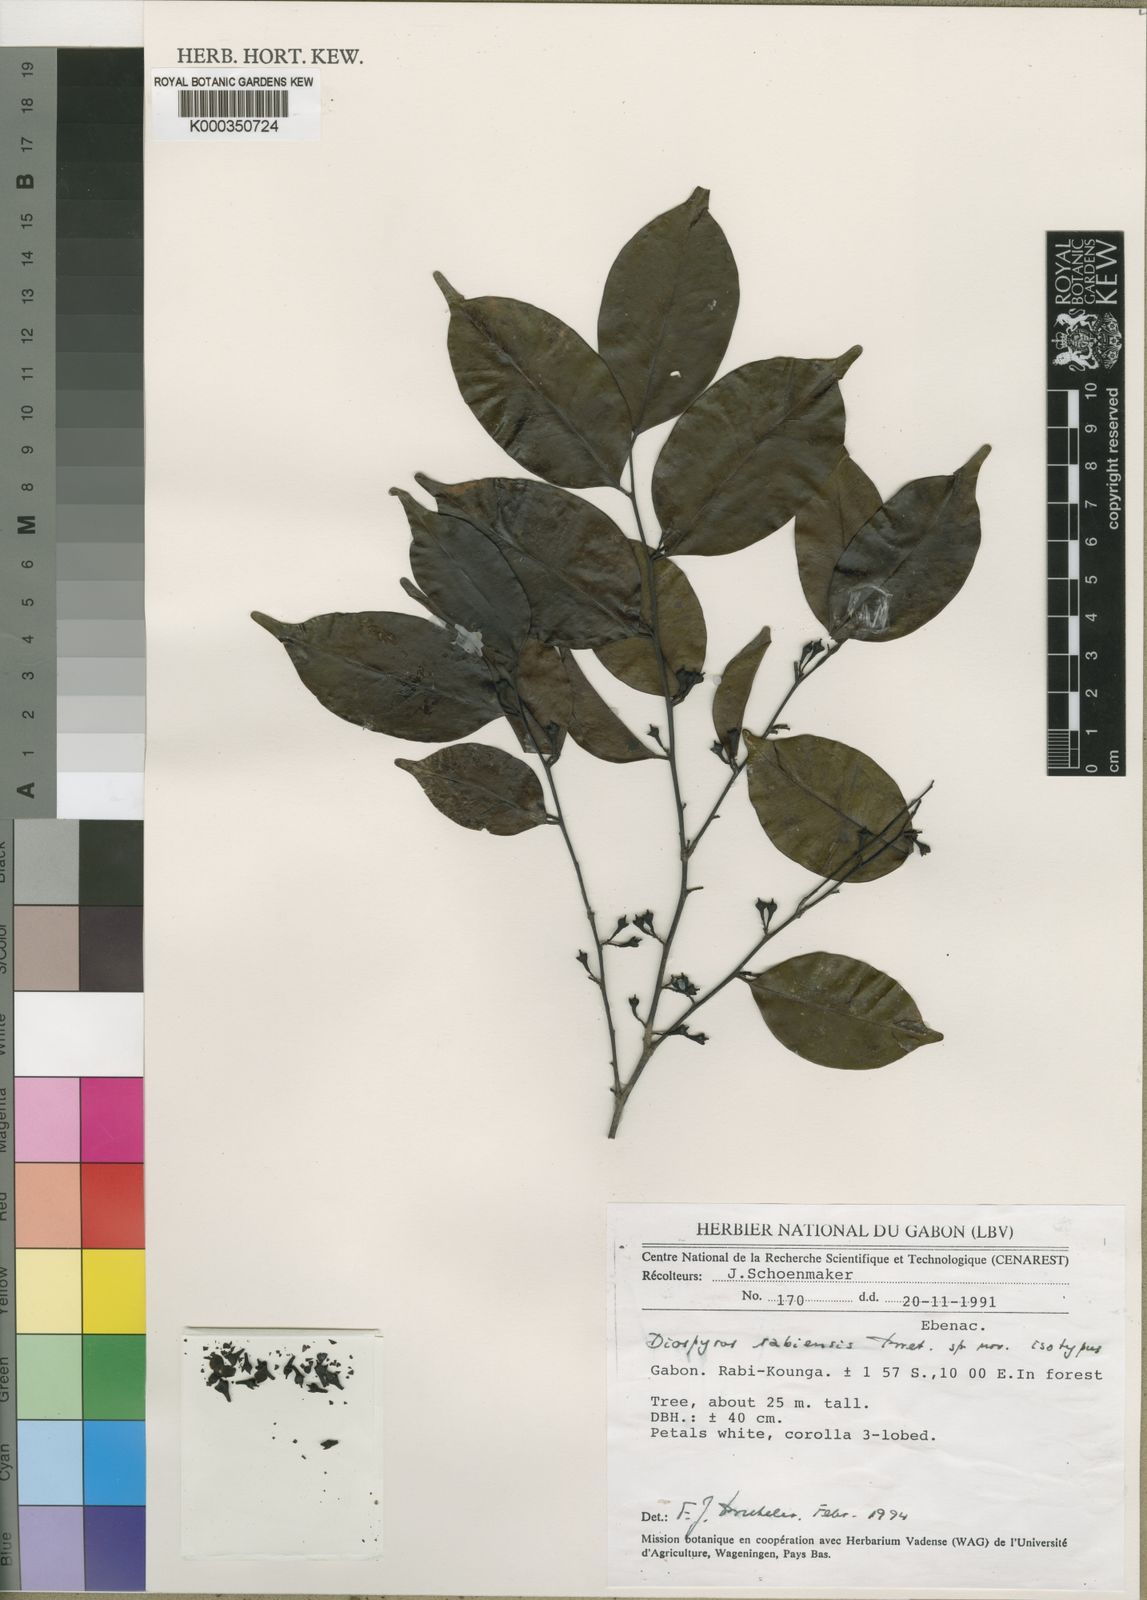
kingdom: Plantae
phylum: Tracheophyta
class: Magnoliopsida
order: Ericales
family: Ebenaceae
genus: Diospyros
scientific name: Diospyros rabiensis
